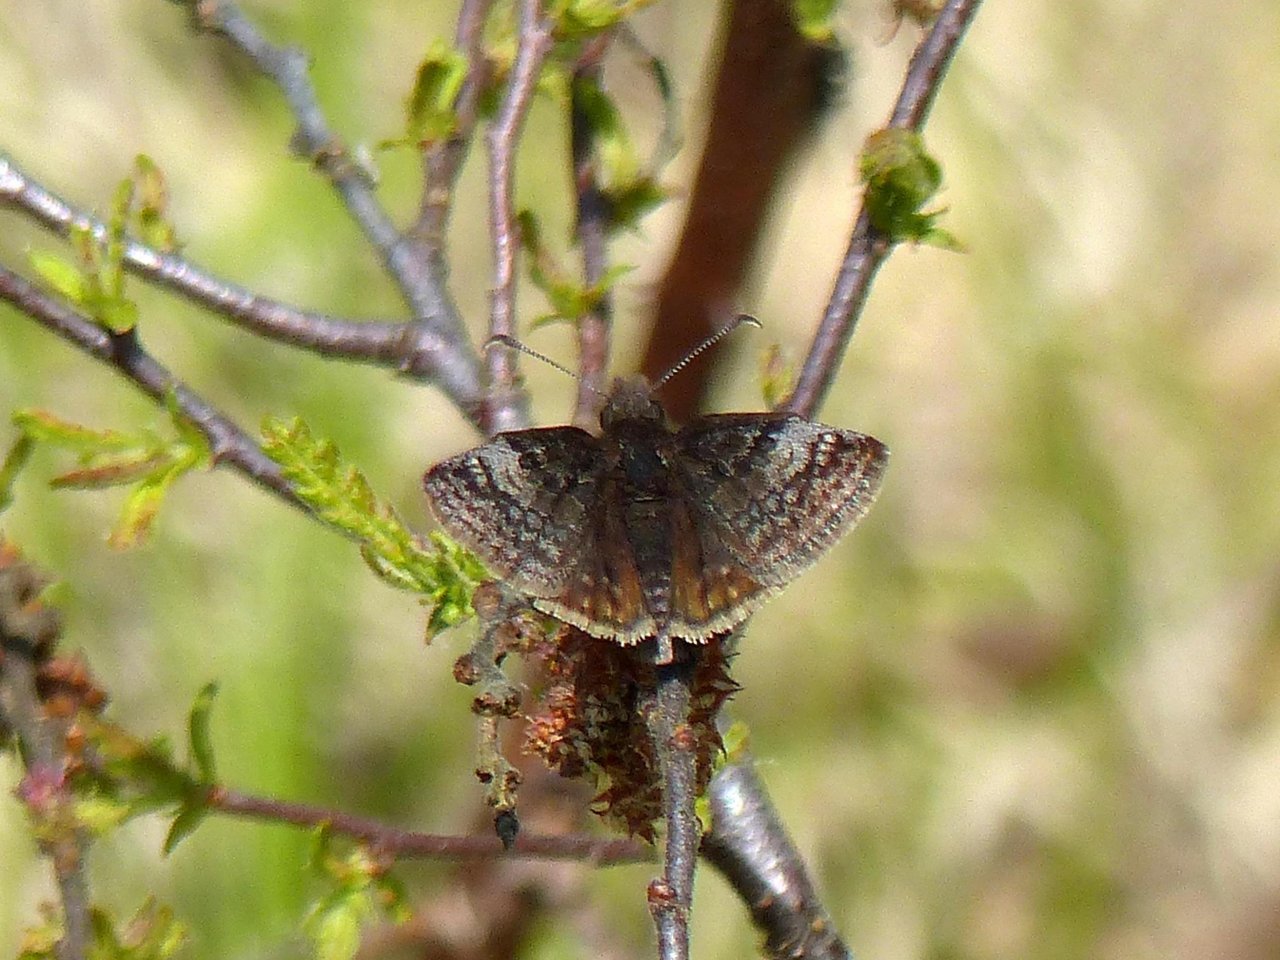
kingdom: Animalia
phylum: Arthropoda
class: Insecta
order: Lepidoptera
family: Hesperiidae
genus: Erynnis
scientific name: Erynnis icelus
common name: Dreamy Duskywing
